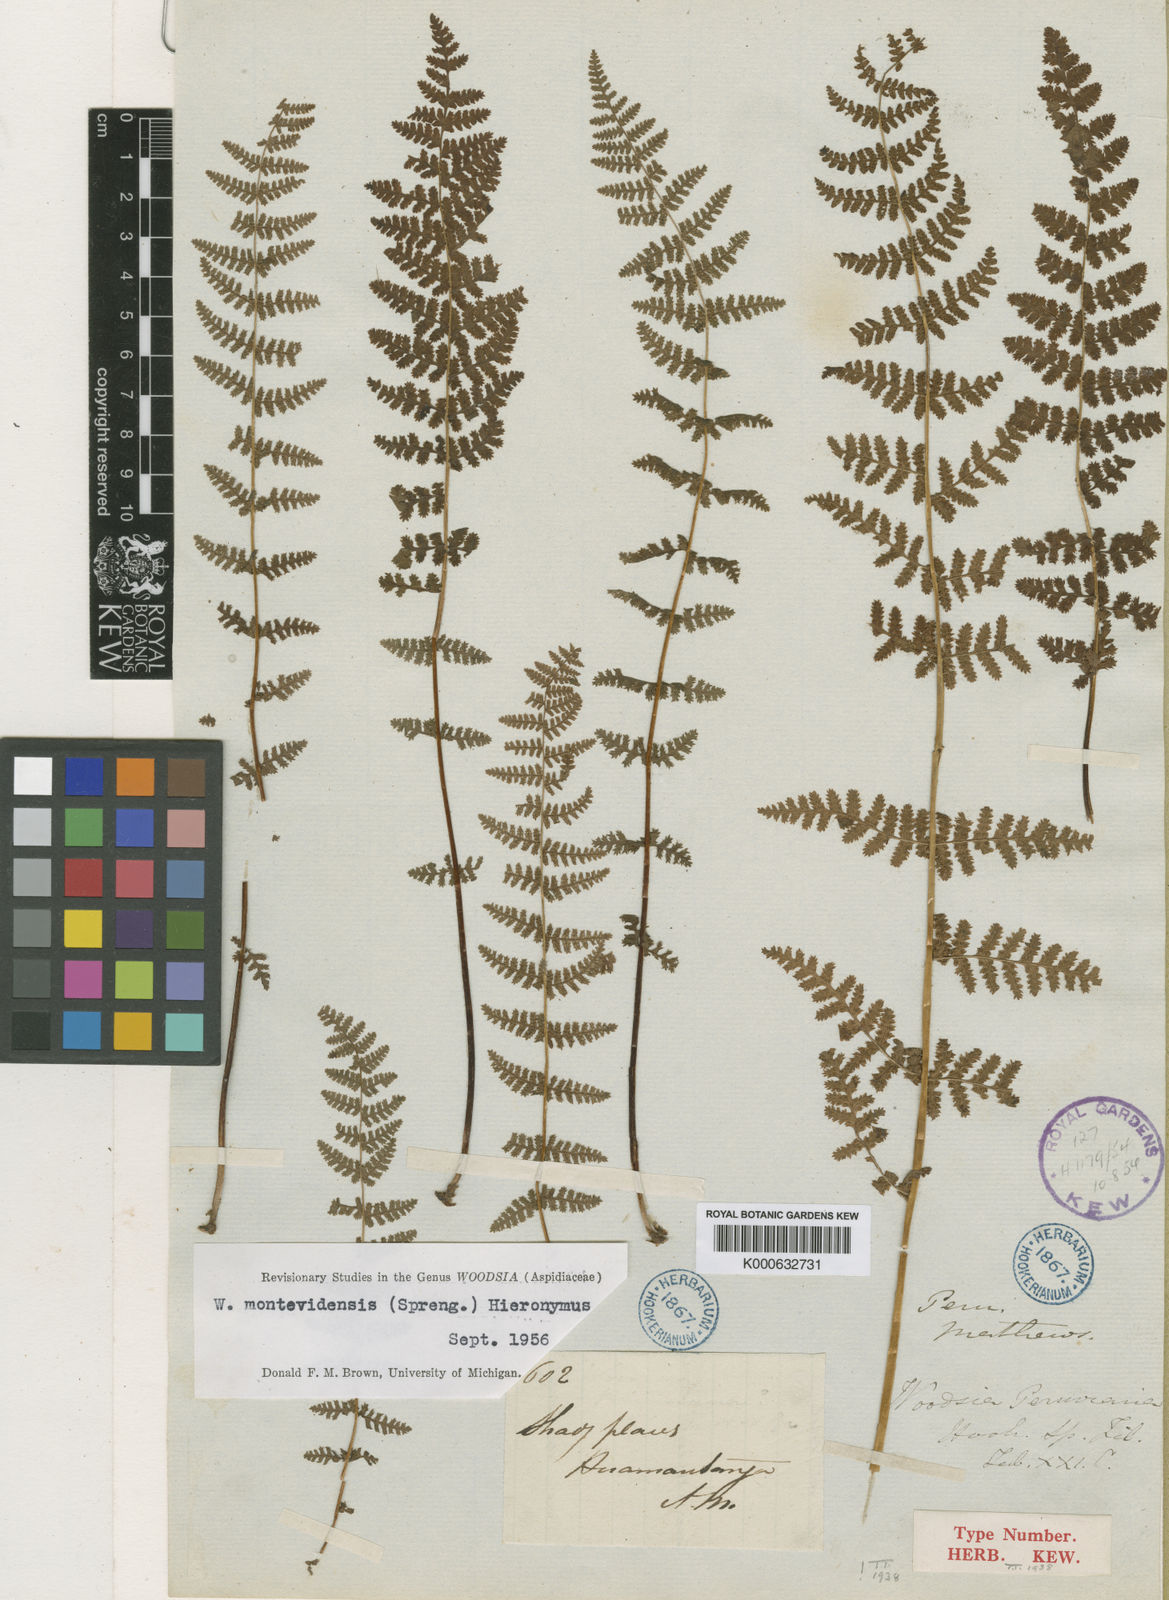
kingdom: Plantae
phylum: Tracheophyta
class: Polypodiopsida
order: Polypodiales
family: Woodsiaceae
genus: Physematium
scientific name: Physematium montevidense
